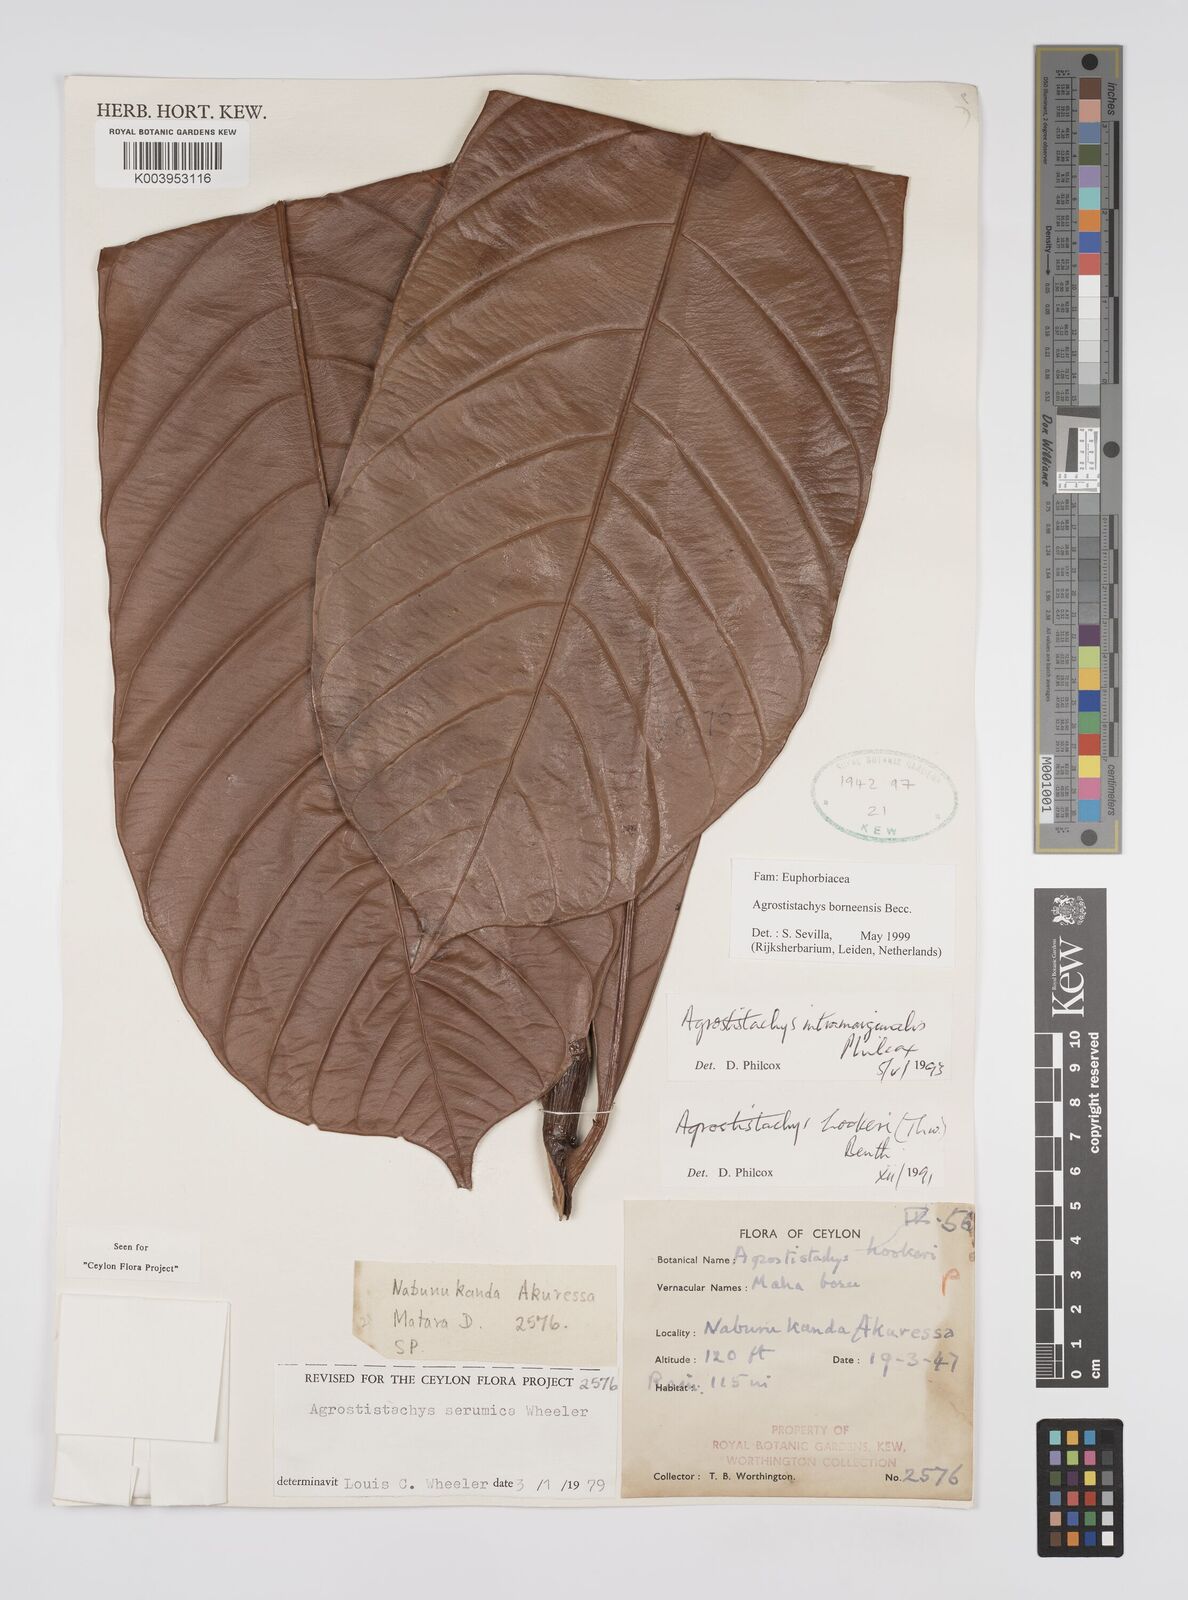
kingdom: Plantae
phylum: Tracheophyta
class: Magnoliopsida
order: Malpighiales
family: Euphorbiaceae
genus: Agrostistachys
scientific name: Agrostistachys borneensis
